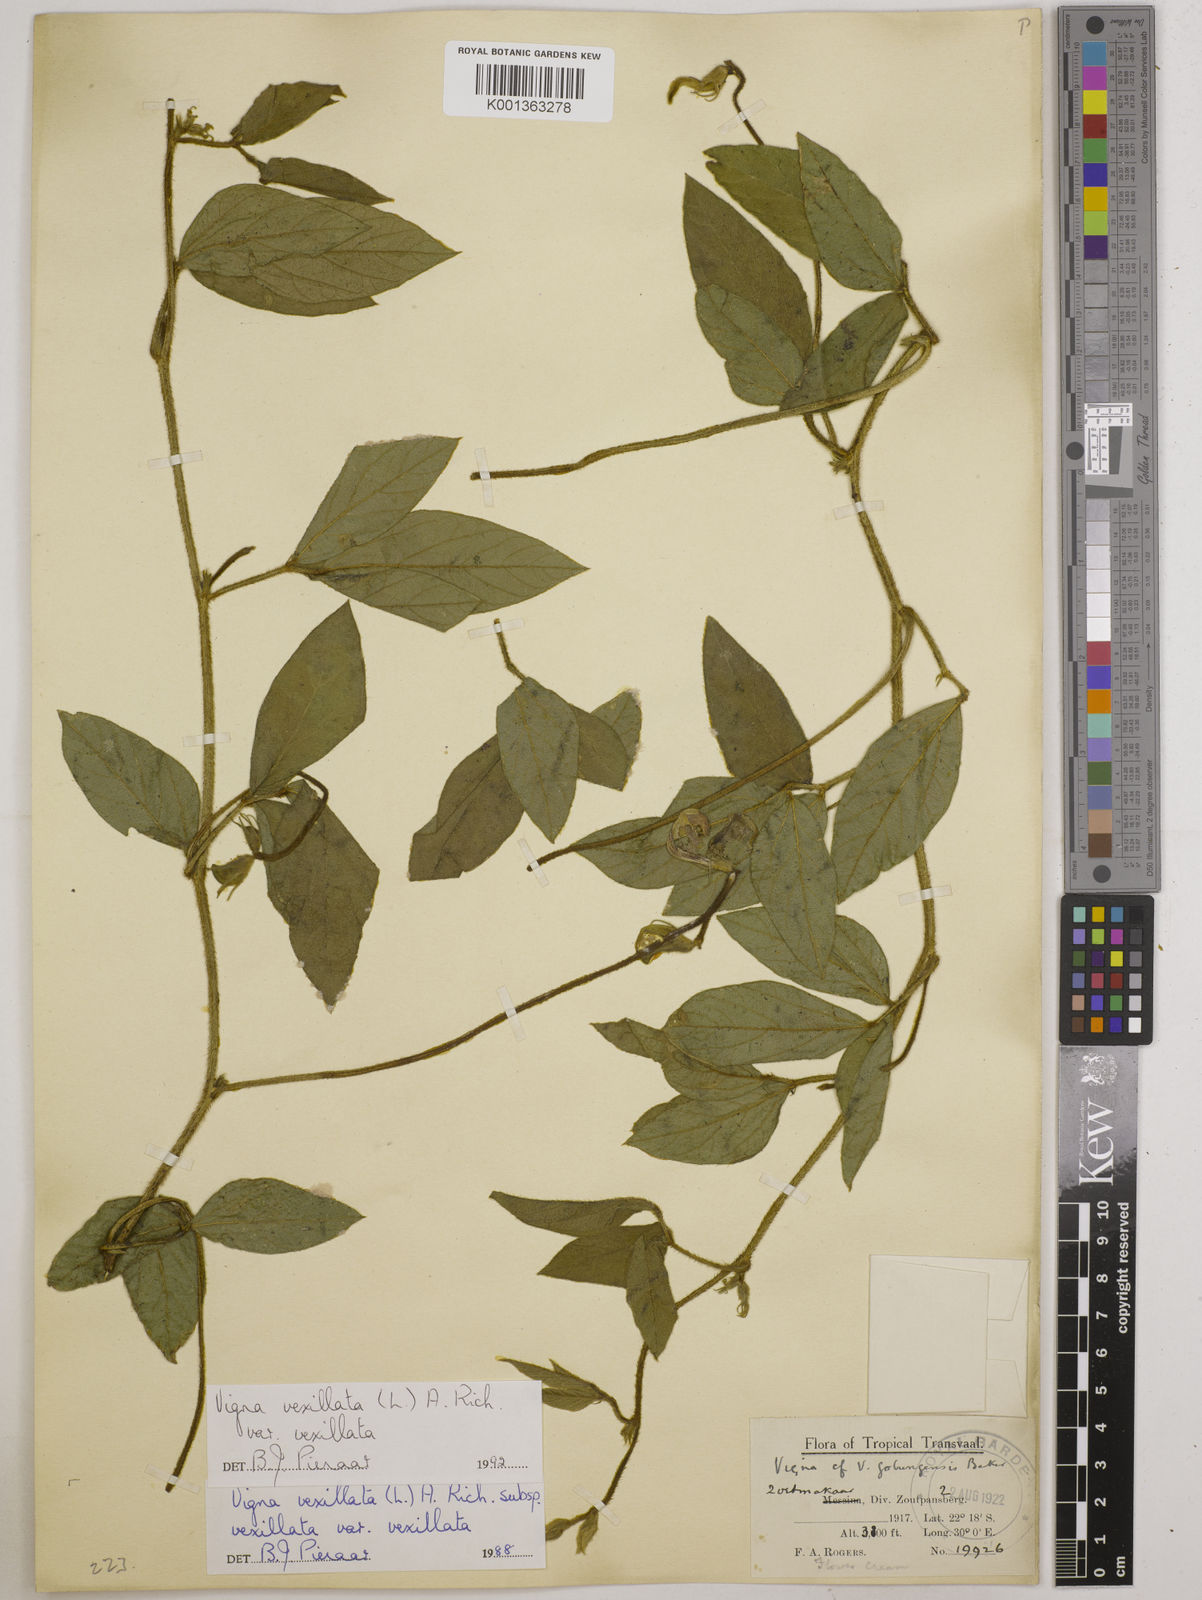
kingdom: Plantae
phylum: Tracheophyta
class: Magnoliopsida
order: Fabales
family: Fabaceae
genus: Vigna
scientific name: Vigna
